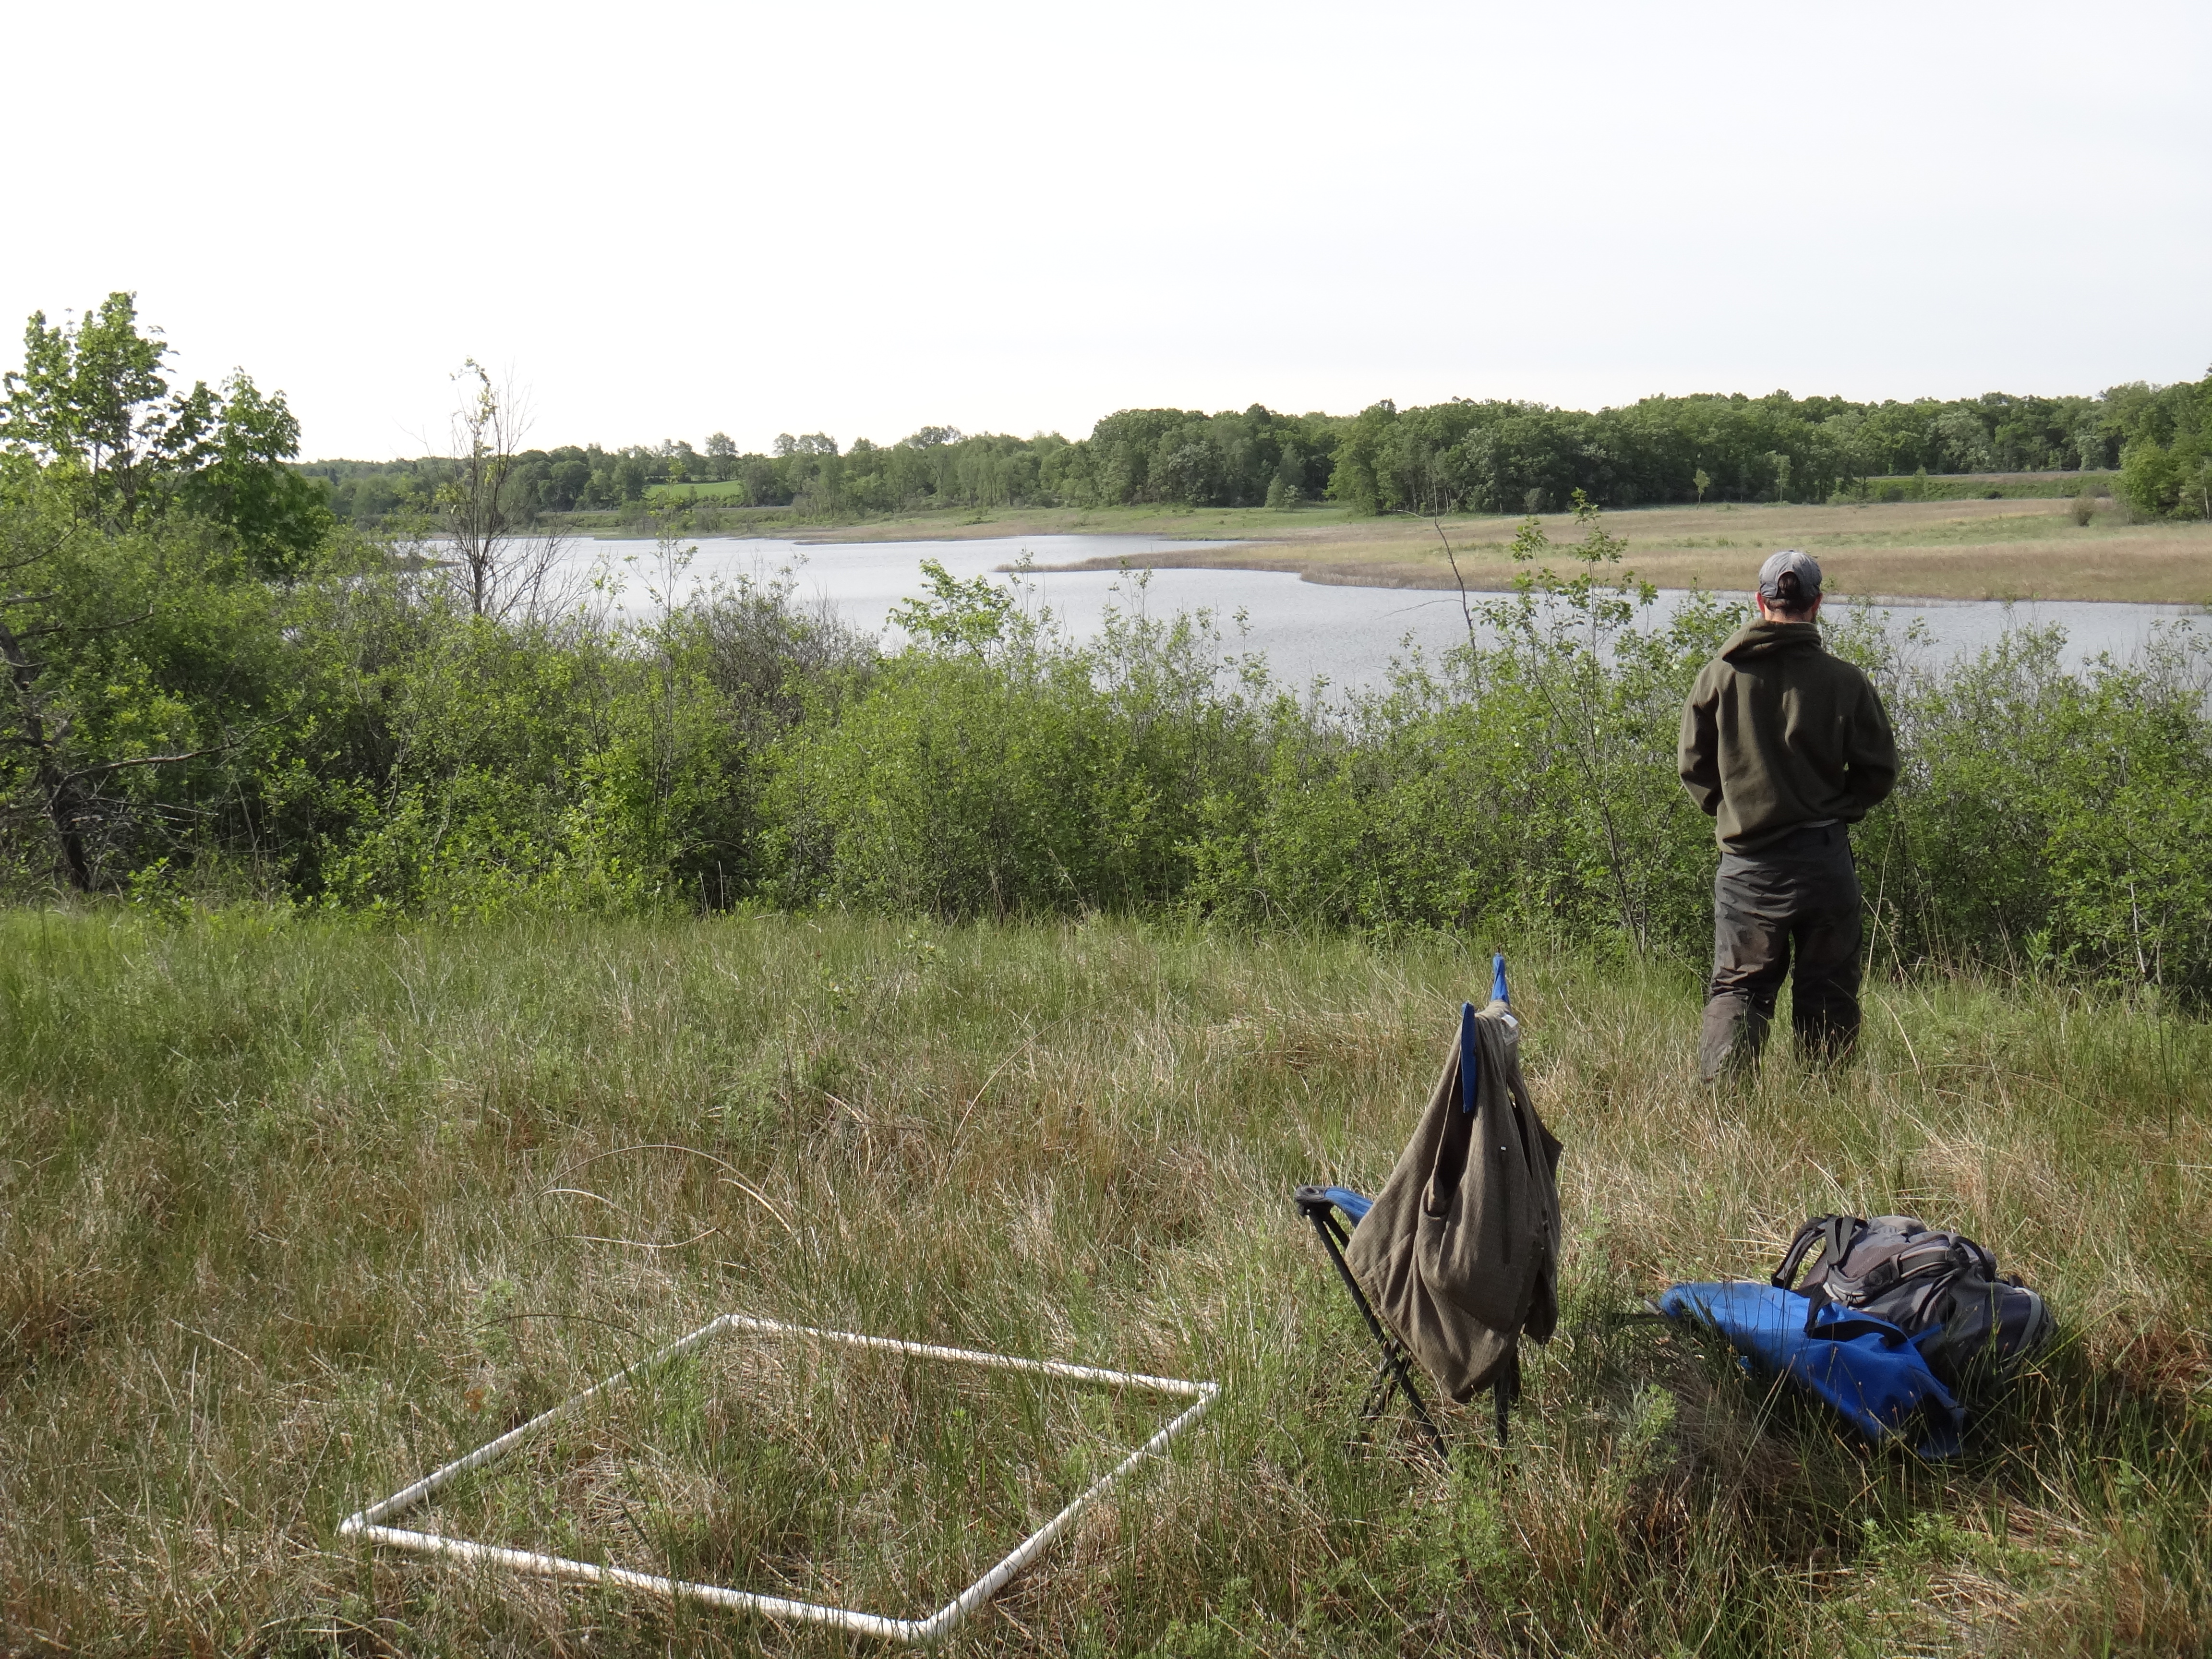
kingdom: Plantae
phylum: Tracheophyta
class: Magnoliopsida
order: Malpighiales
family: Violaceae
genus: Viola
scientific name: Viola cucullata
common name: Marsh blue violet
